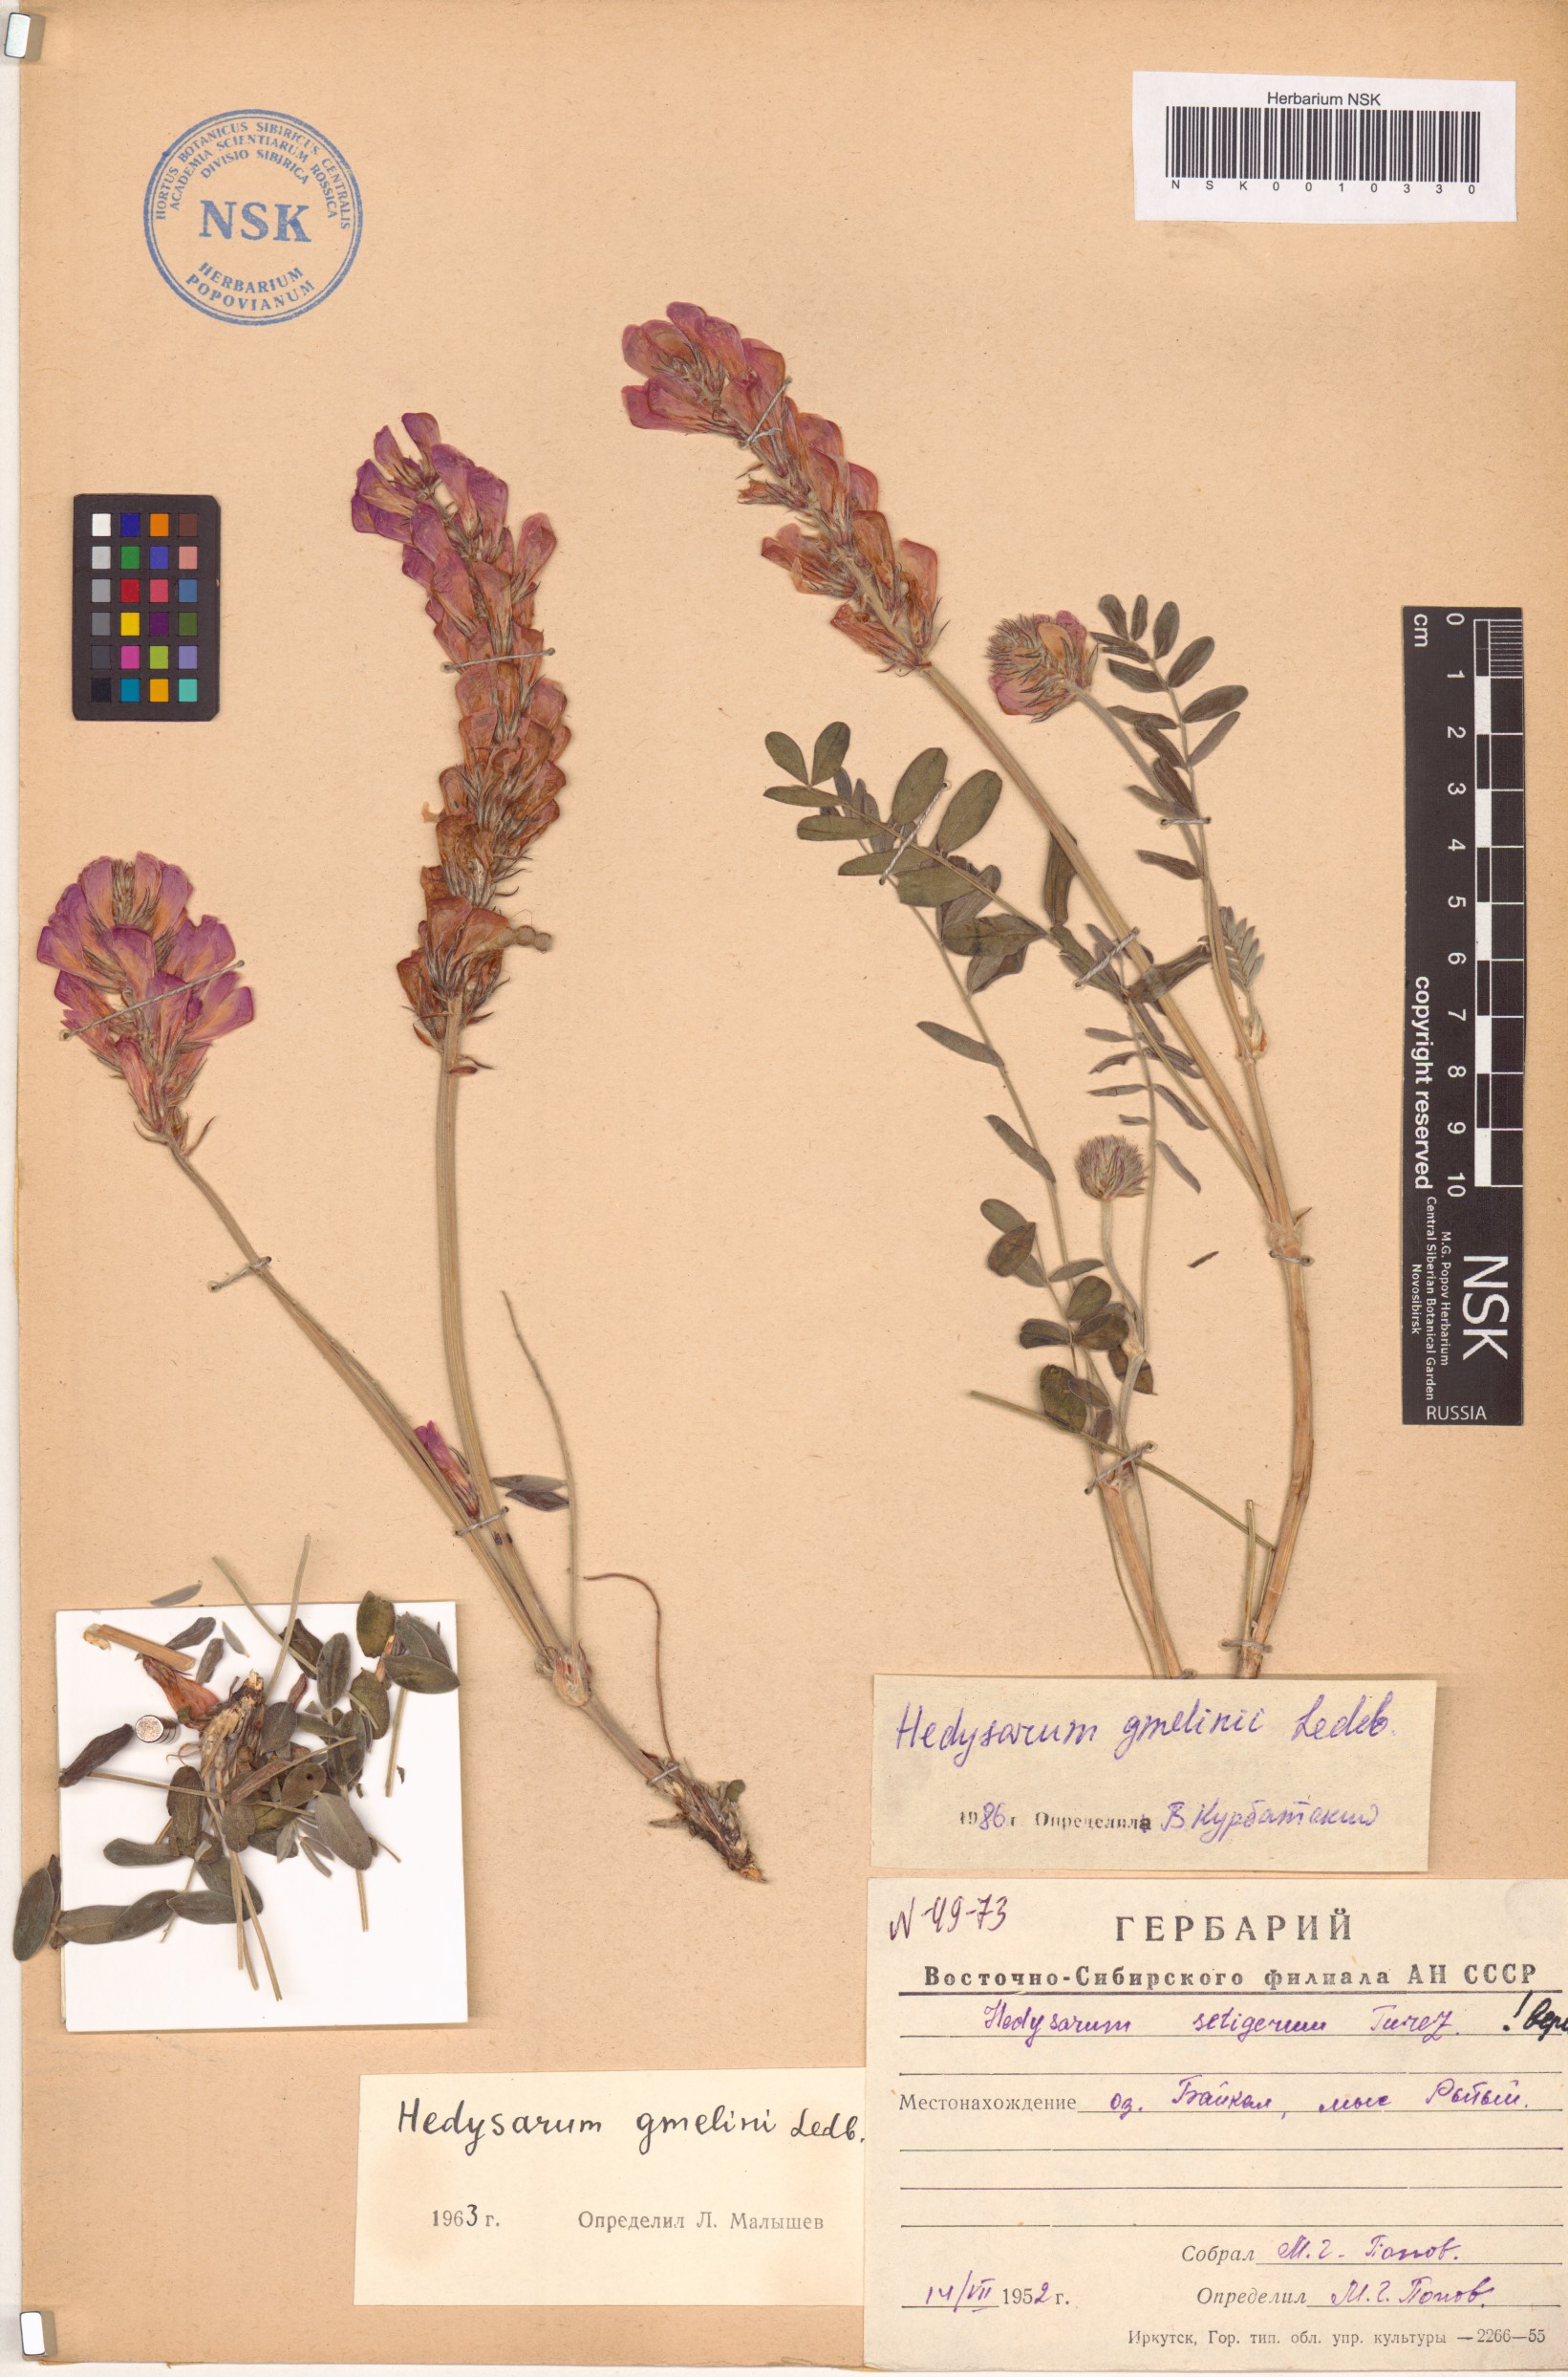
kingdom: Plantae
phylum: Tracheophyta
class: Magnoliopsida
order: Fabales
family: Fabaceae
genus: Hedysarum
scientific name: Hedysarum gmelinii
